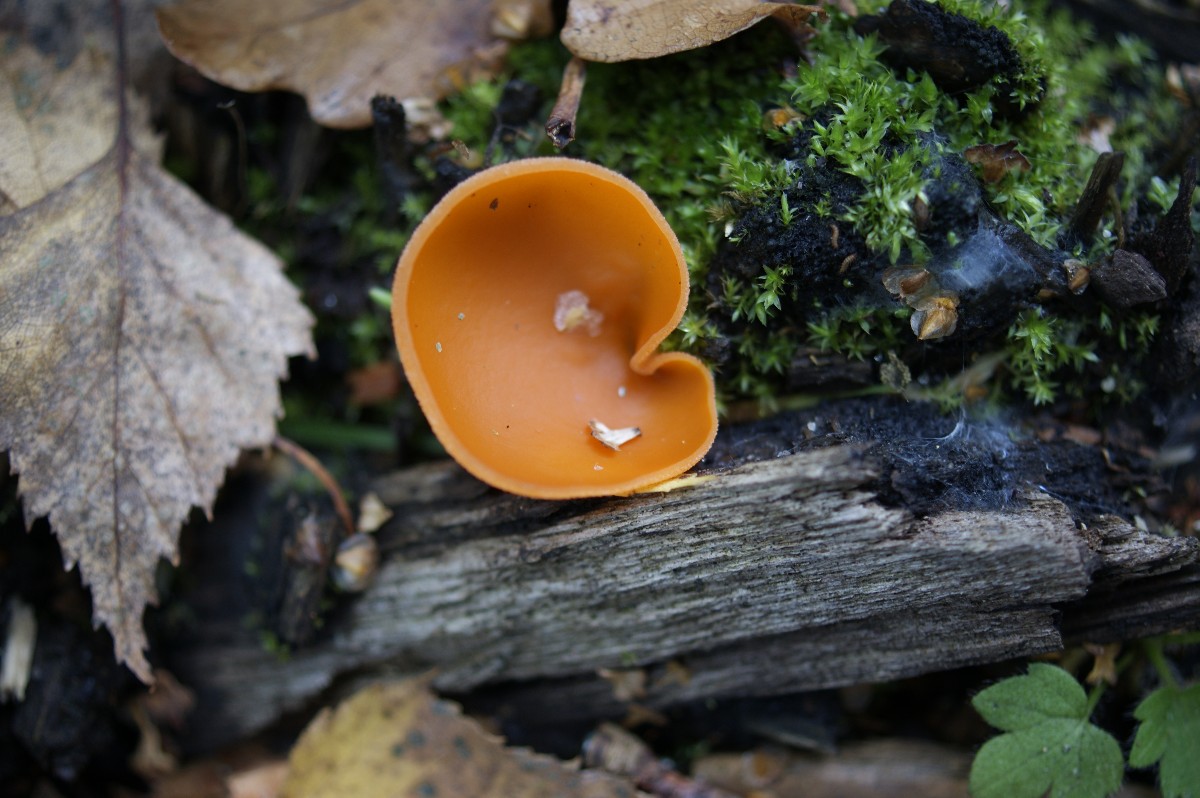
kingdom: Fungi
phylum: Ascomycota
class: Pezizomycetes
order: Pezizales
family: Pyronemataceae
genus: Aleuria
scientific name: Aleuria aurantia
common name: almindelig orangebæger
